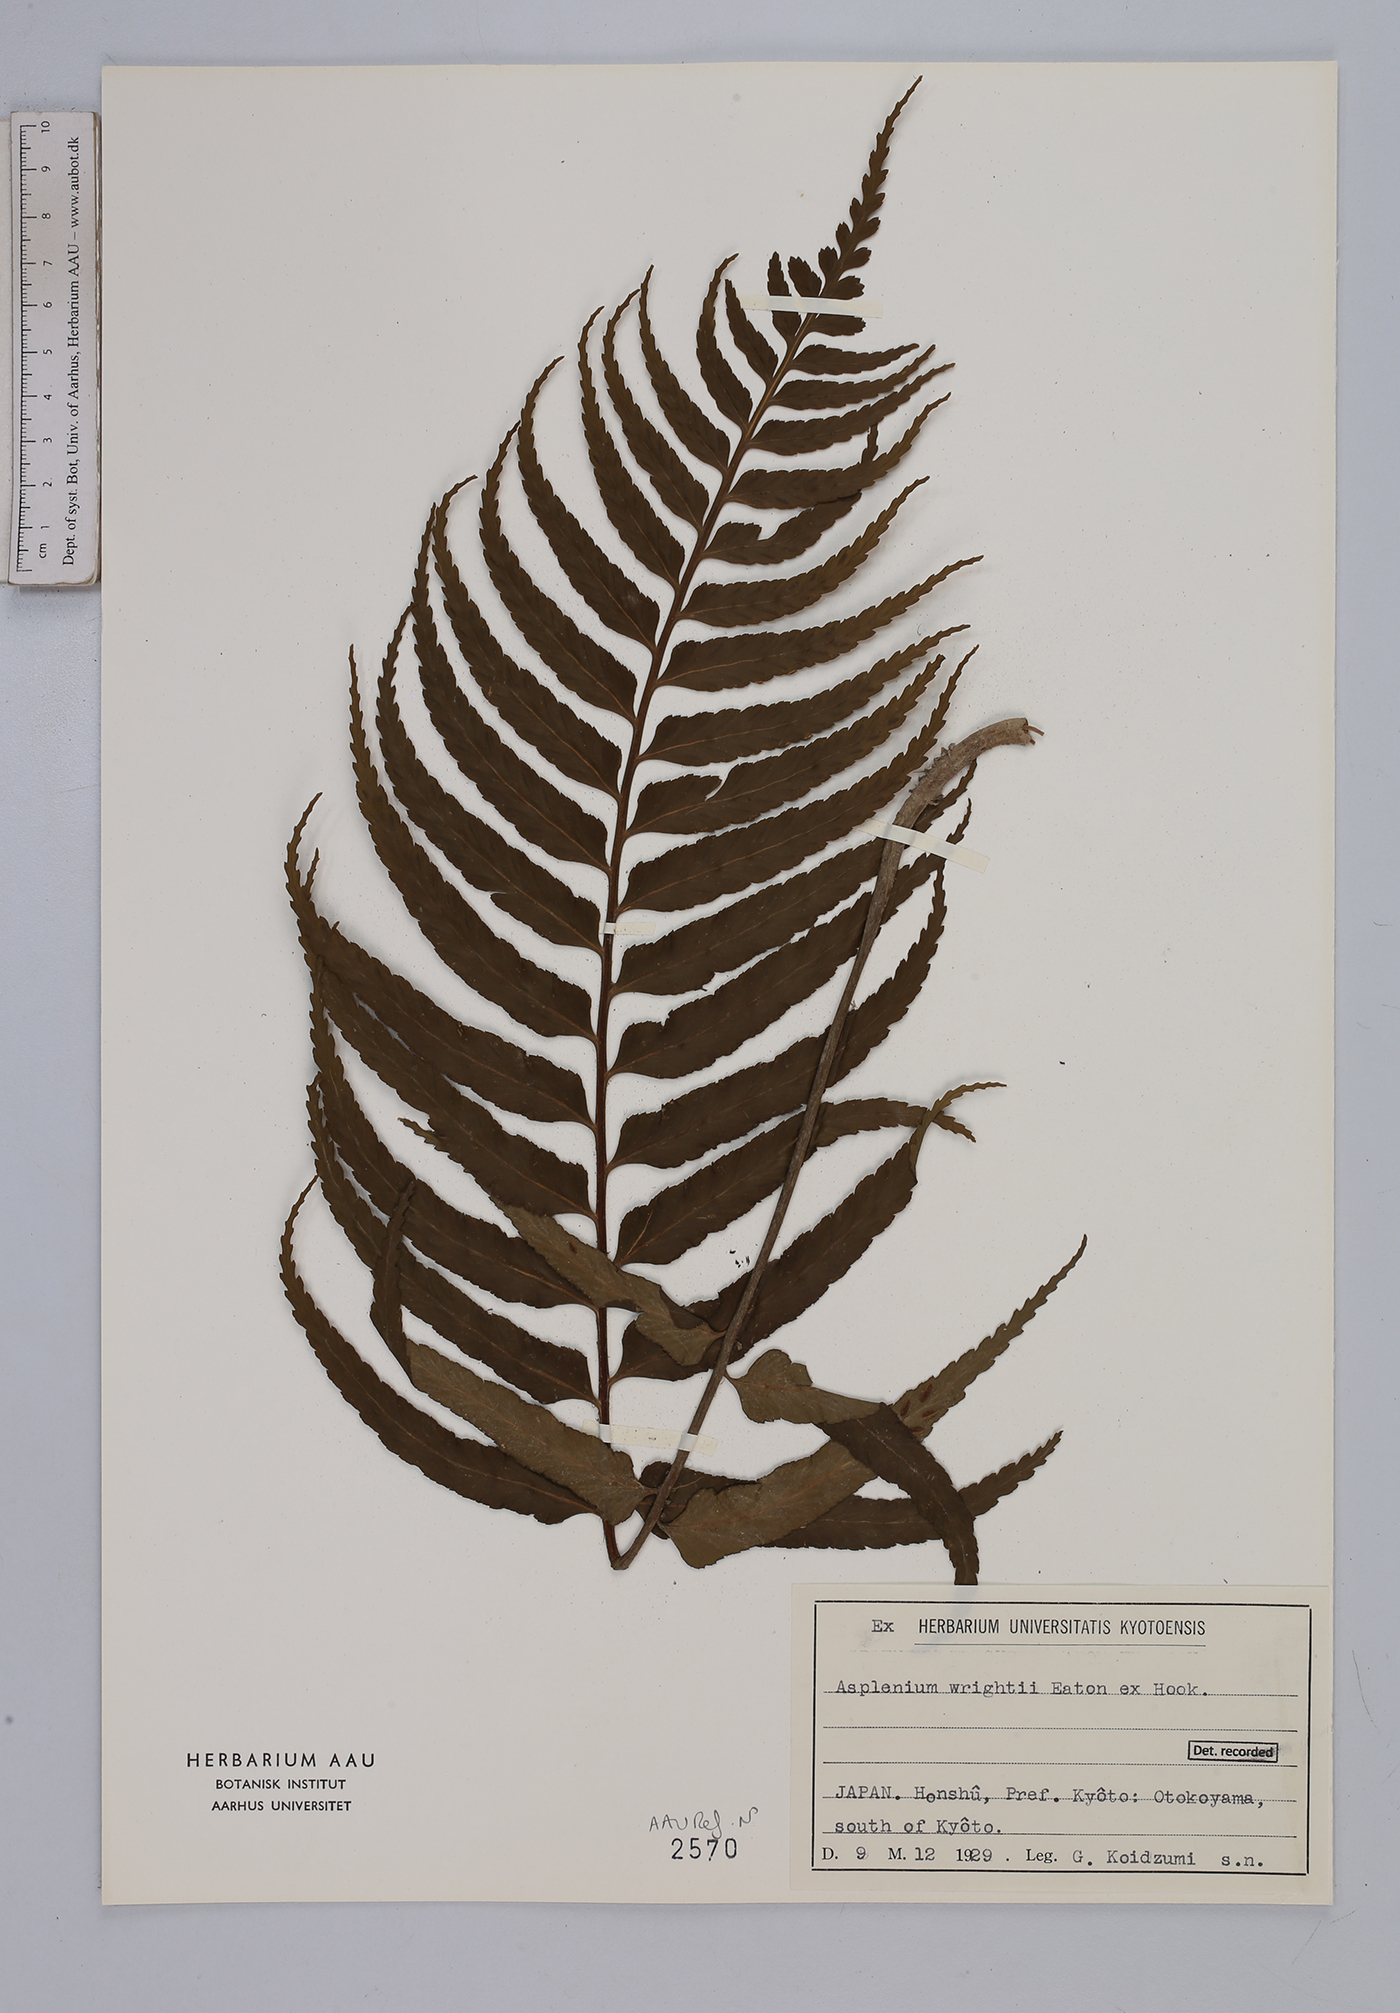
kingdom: Plantae
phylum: Tracheophyta
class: Polypodiopsida
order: Polypodiales
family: Aspleniaceae
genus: Asplenium
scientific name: Asplenium wrightii
